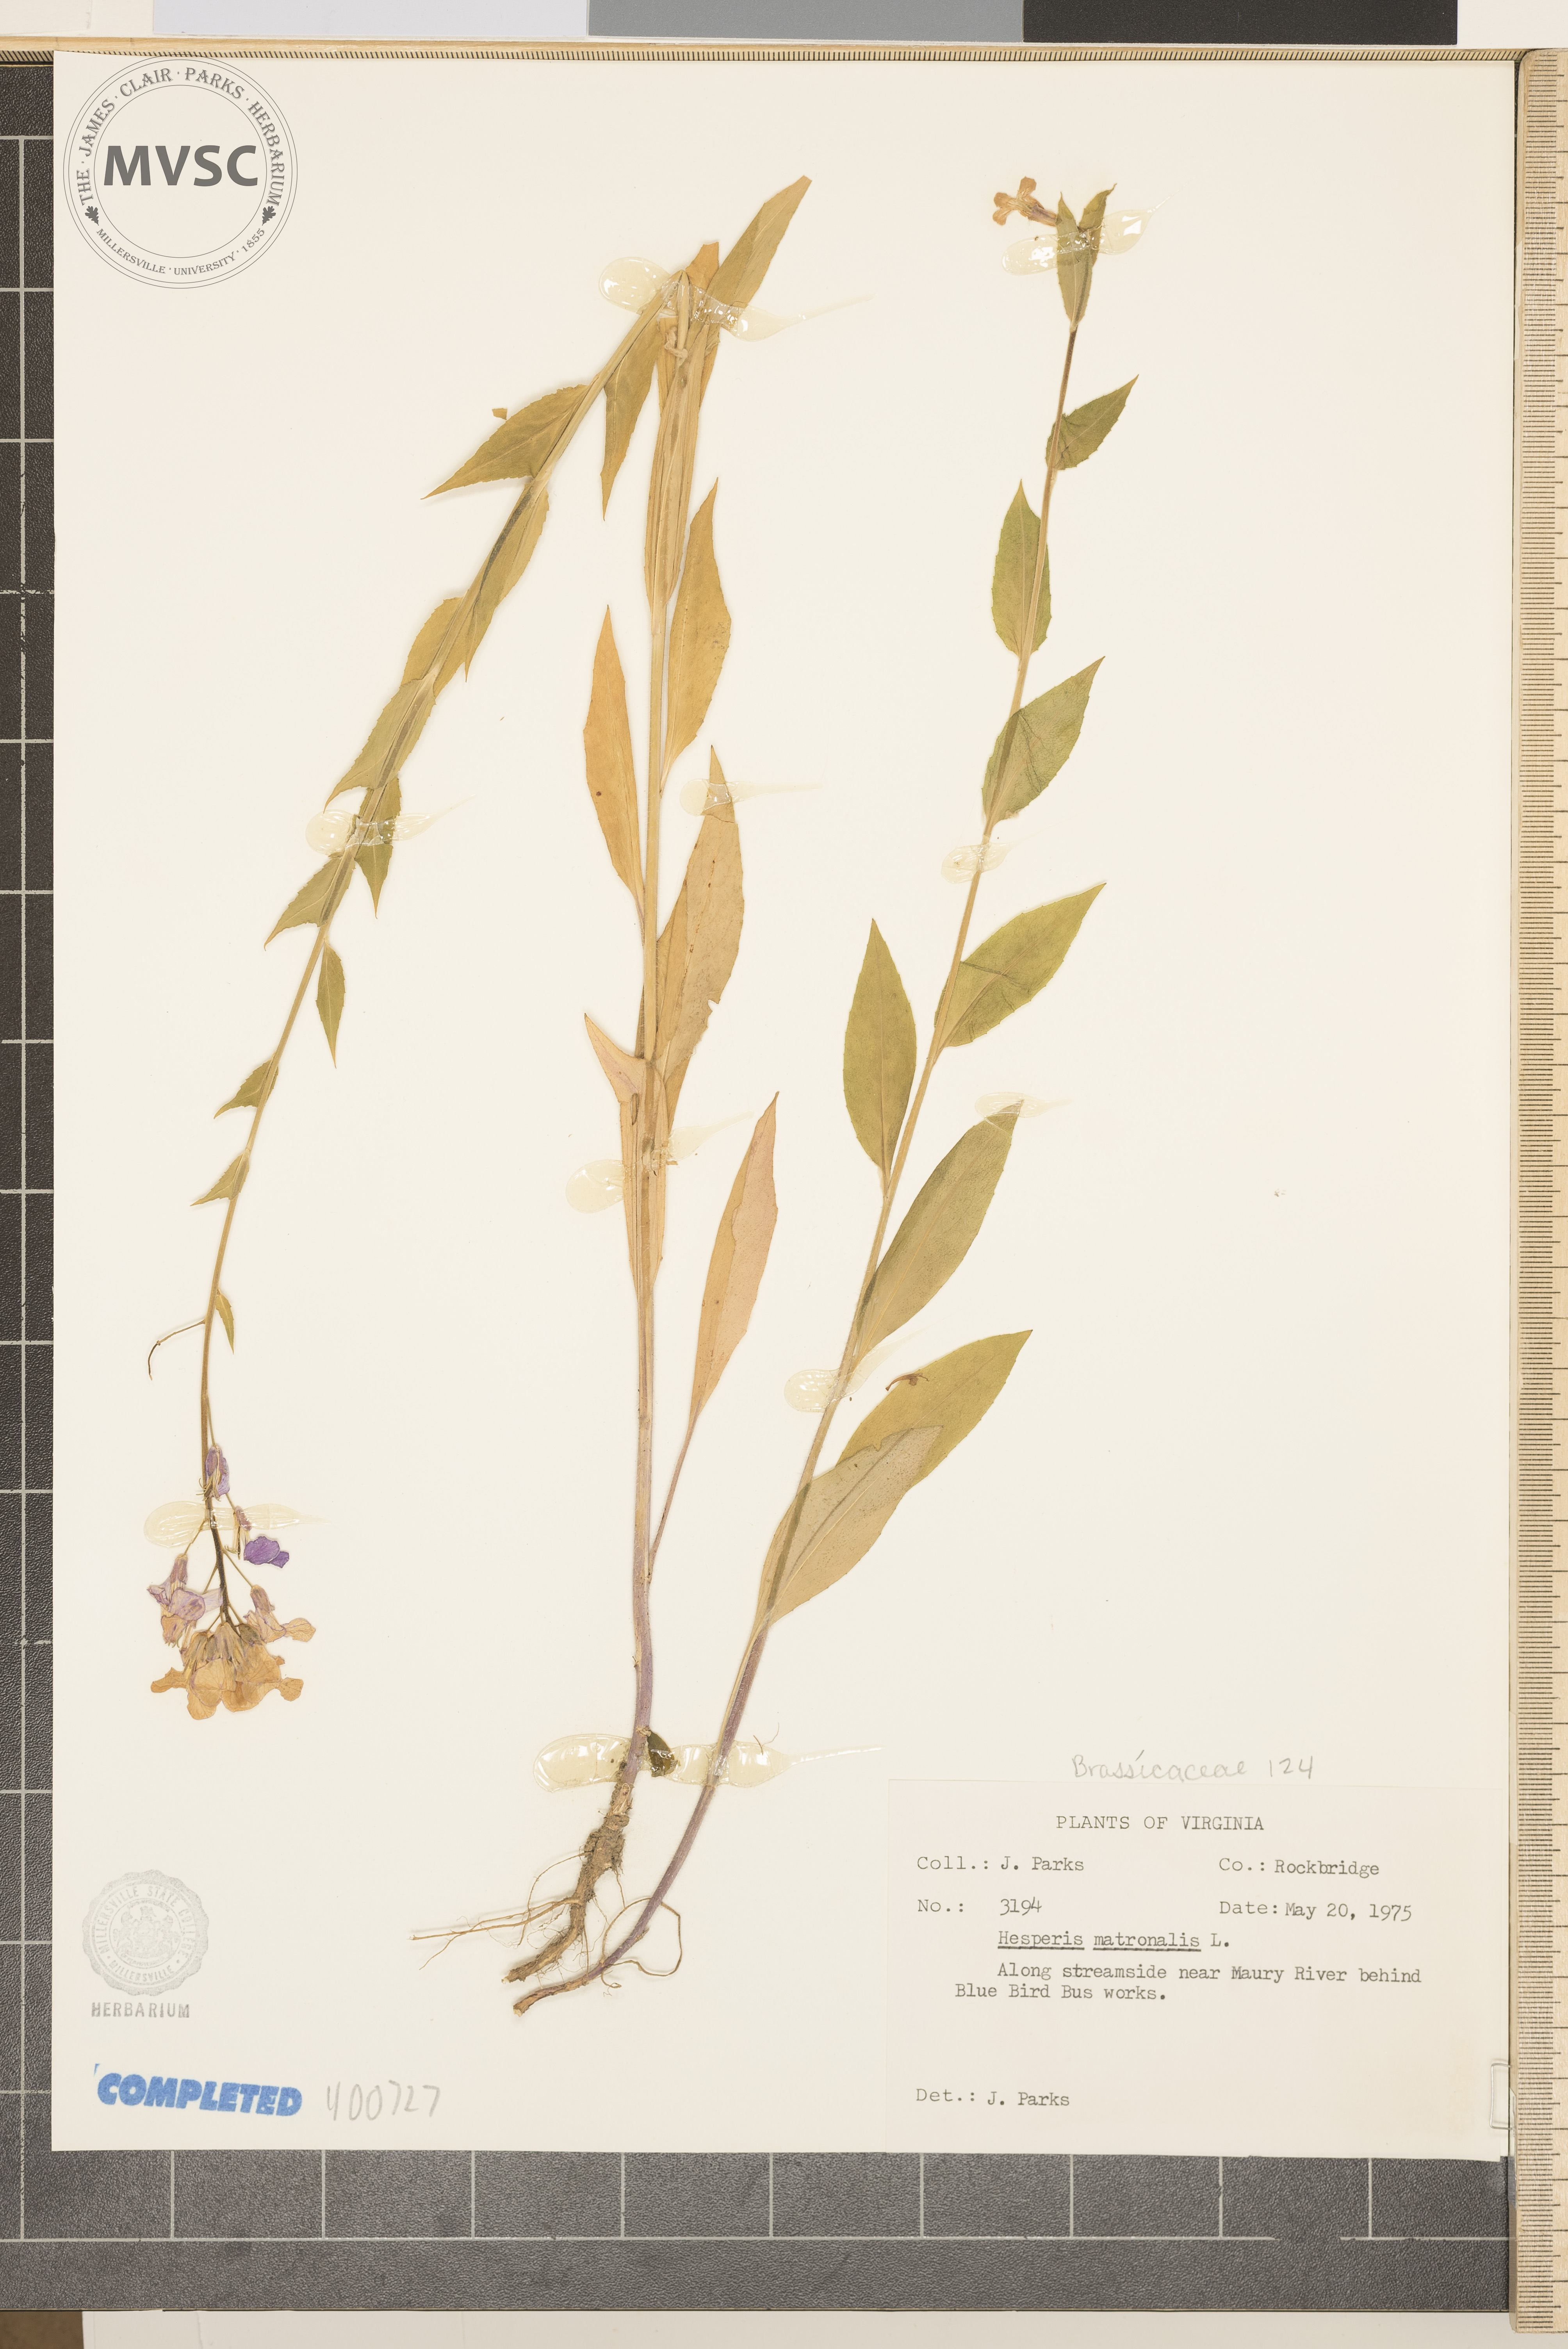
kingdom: Plantae
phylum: Tracheophyta
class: Magnoliopsida
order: Brassicales
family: Brassicaceae
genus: Hesperis
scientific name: Hesperis matronalis
